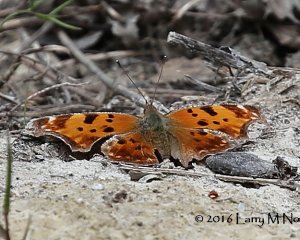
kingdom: Animalia
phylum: Arthropoda
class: Insecta
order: Lepidoptera
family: Nymphalidae
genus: Polygonia
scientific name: Polygonia comma
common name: Eastern Comma
